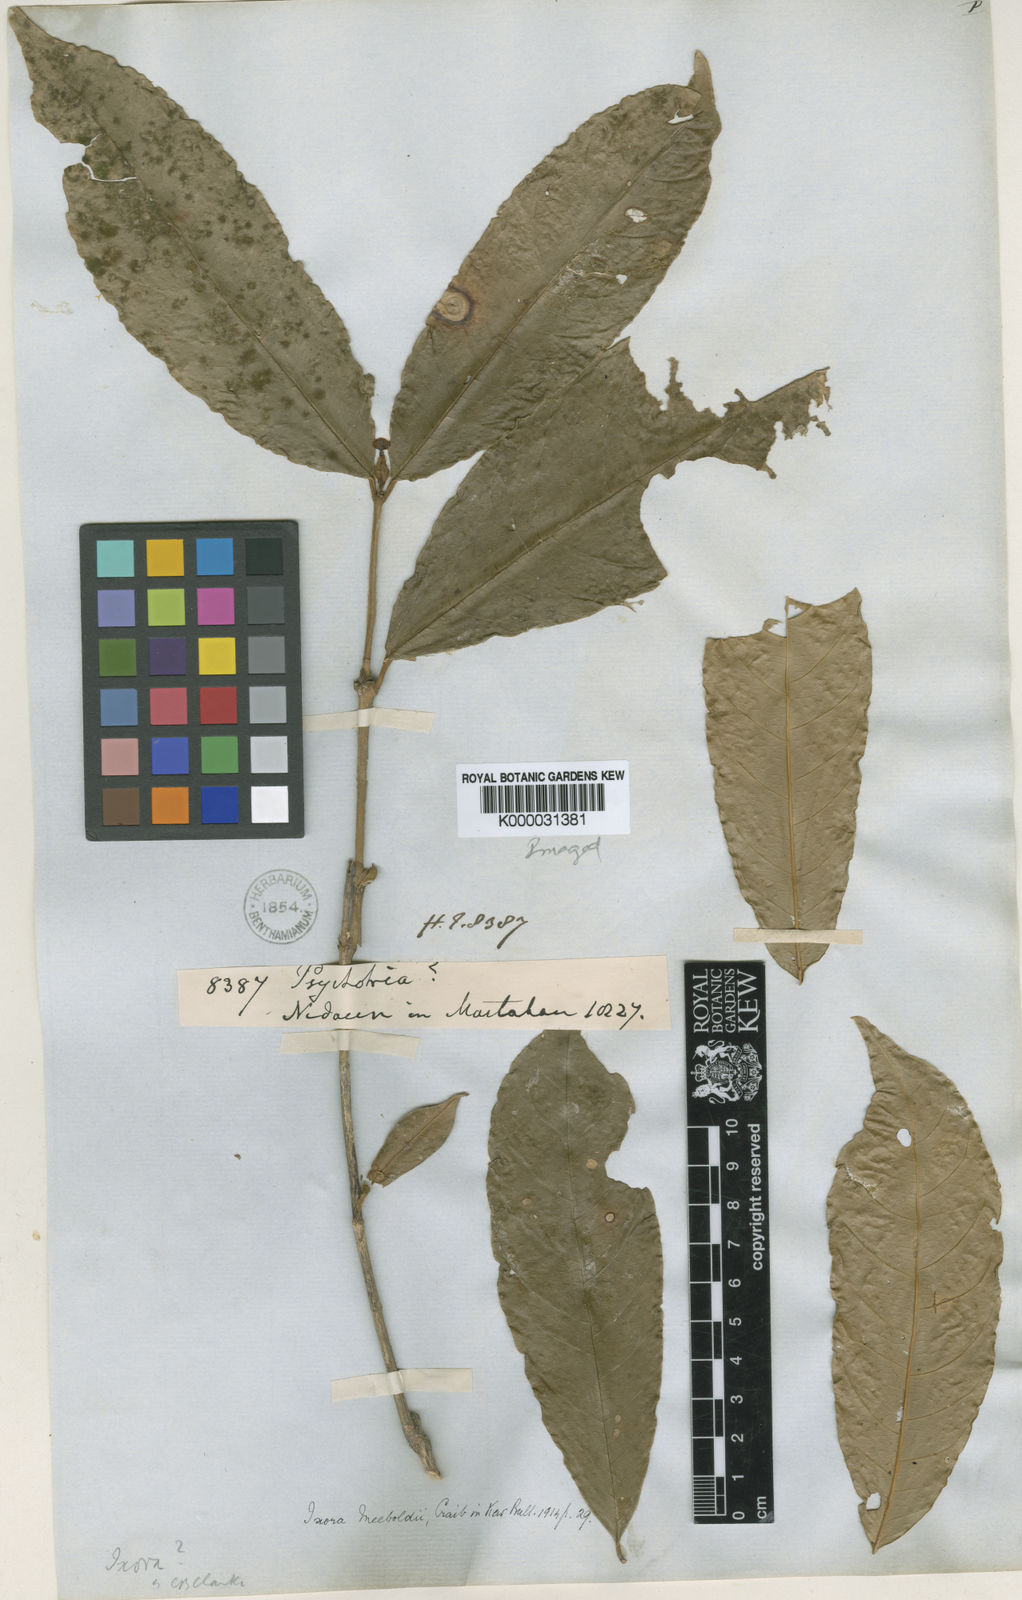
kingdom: Plantae
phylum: Tracheophyta
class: Magnoliopsida
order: Gentianales
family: Rubiaceae
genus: Ixora
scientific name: Ixora meeboldii
